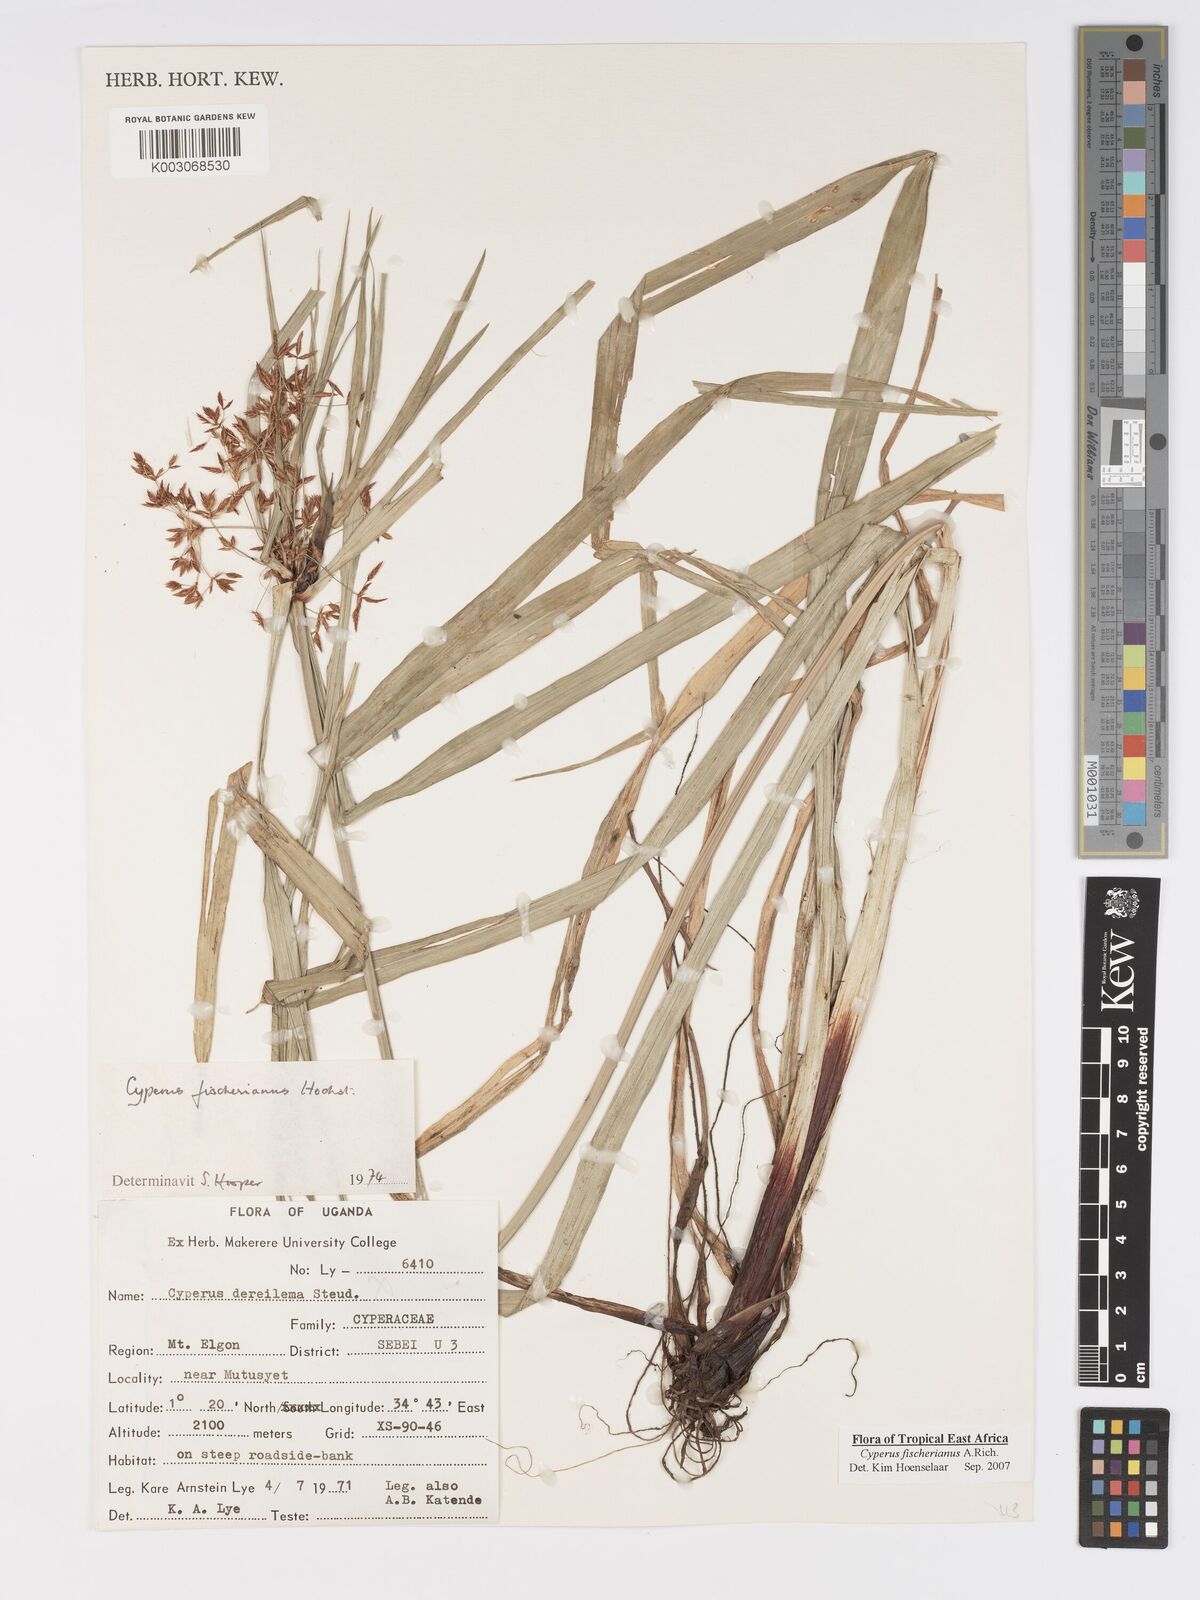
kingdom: Plantae
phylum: Tracheophyta
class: Liliopsida
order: Poales
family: Cyperaceae
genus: Cyperus
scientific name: Cyperus fischerianus
